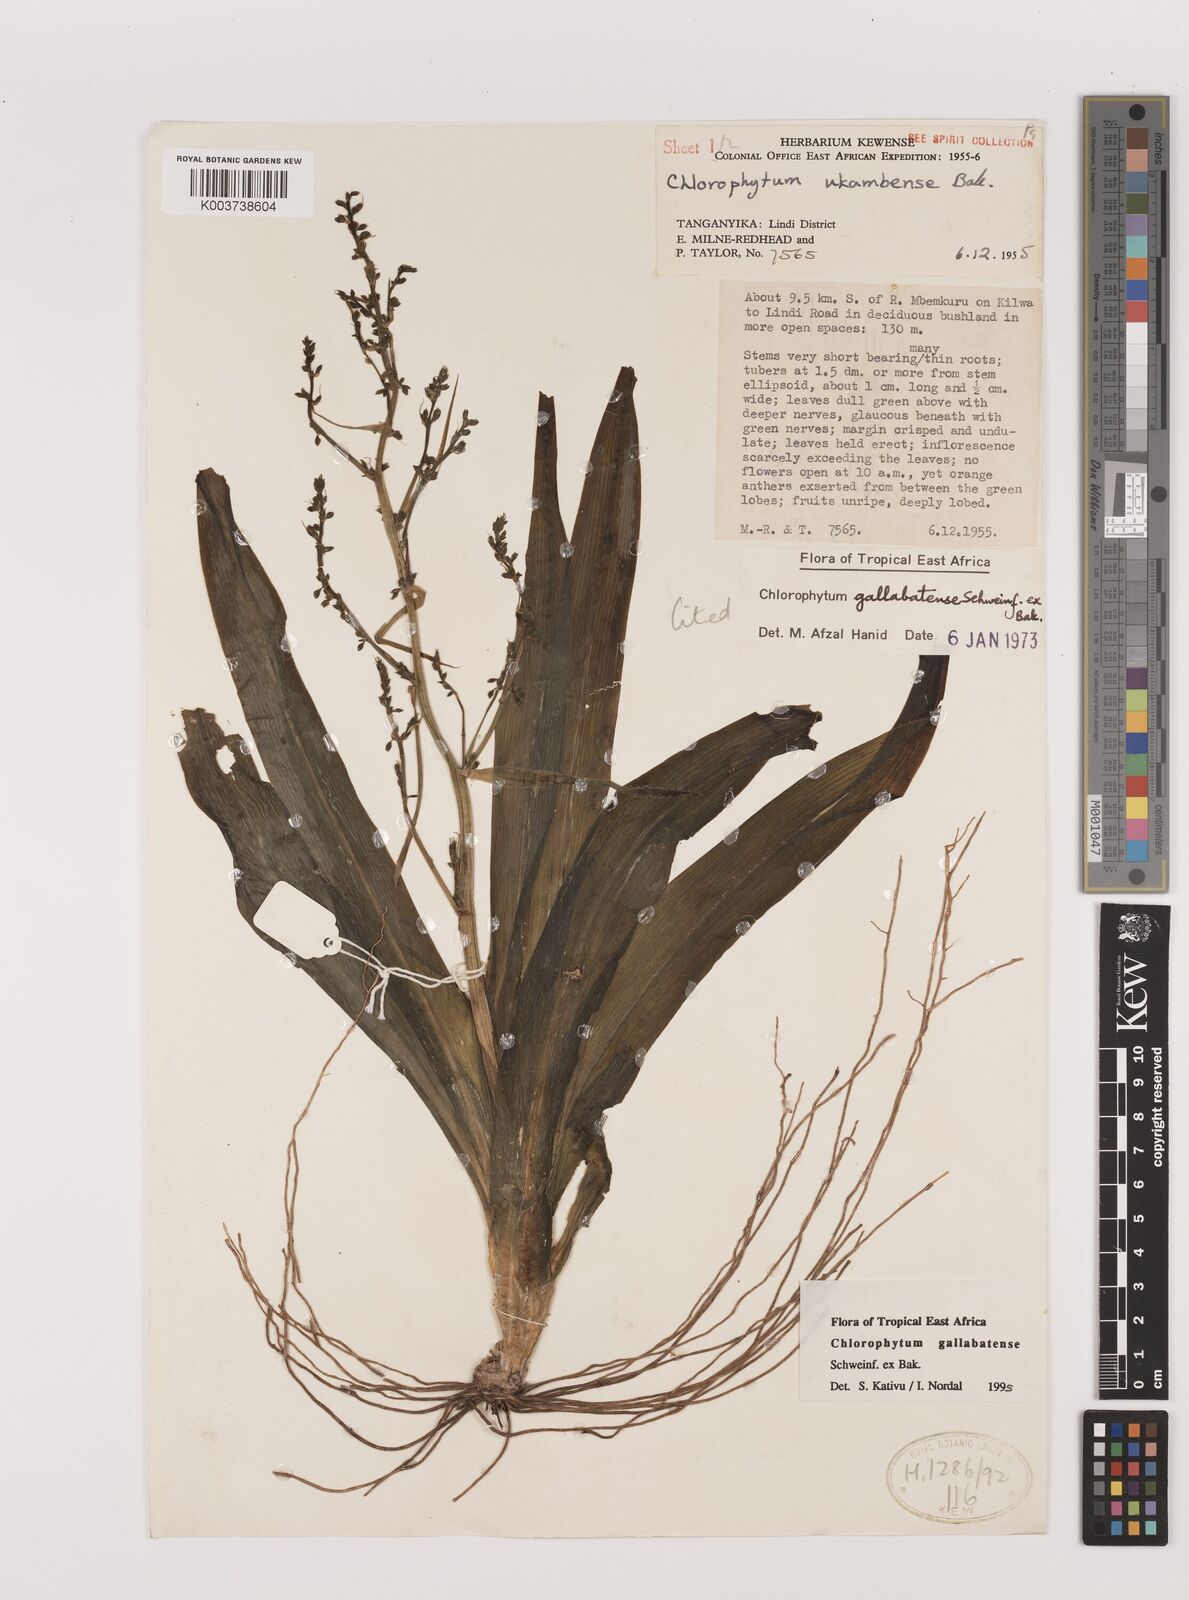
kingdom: Plantae
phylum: Tracheophyta
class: Liliopsida
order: Asparagales
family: Asparagaceae
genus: Chlorophytum
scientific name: Chlorophytum gallabatense
